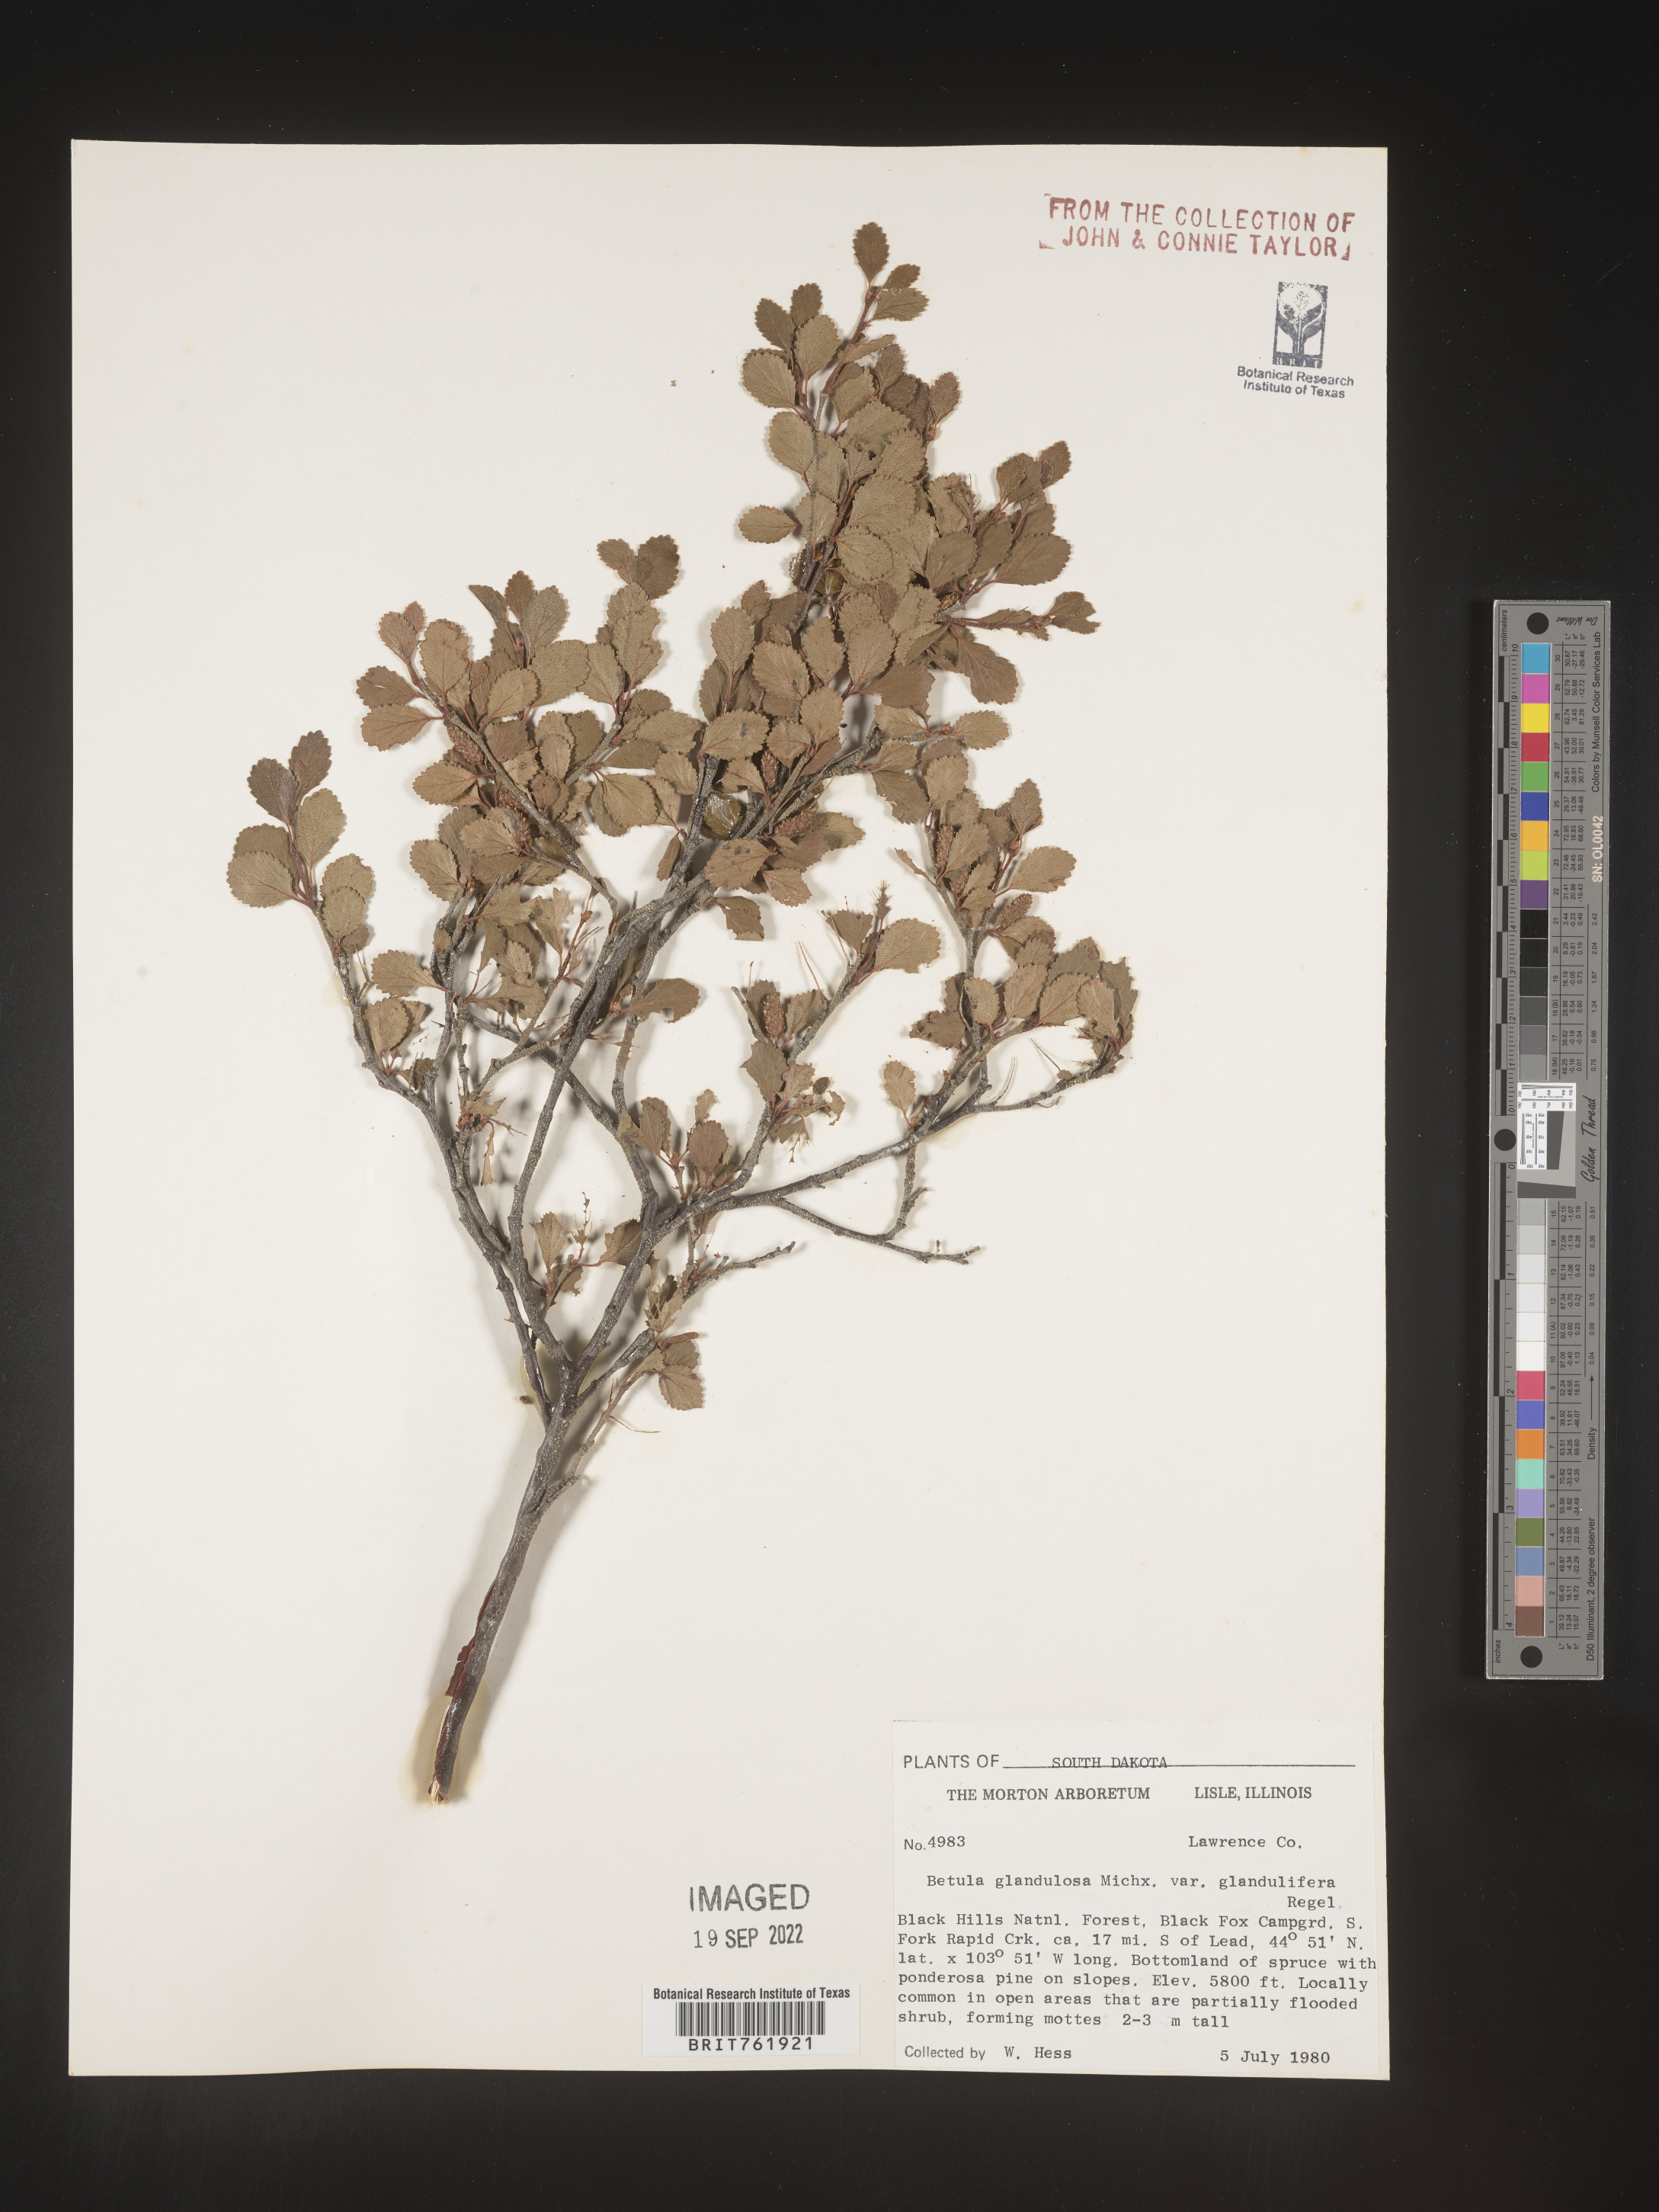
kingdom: Plantae
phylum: Tracheophyta
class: Magnoliopsida
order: Fagales
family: Betulaceae
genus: Betula
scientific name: Betula nana
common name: Arctic dwarf birch
